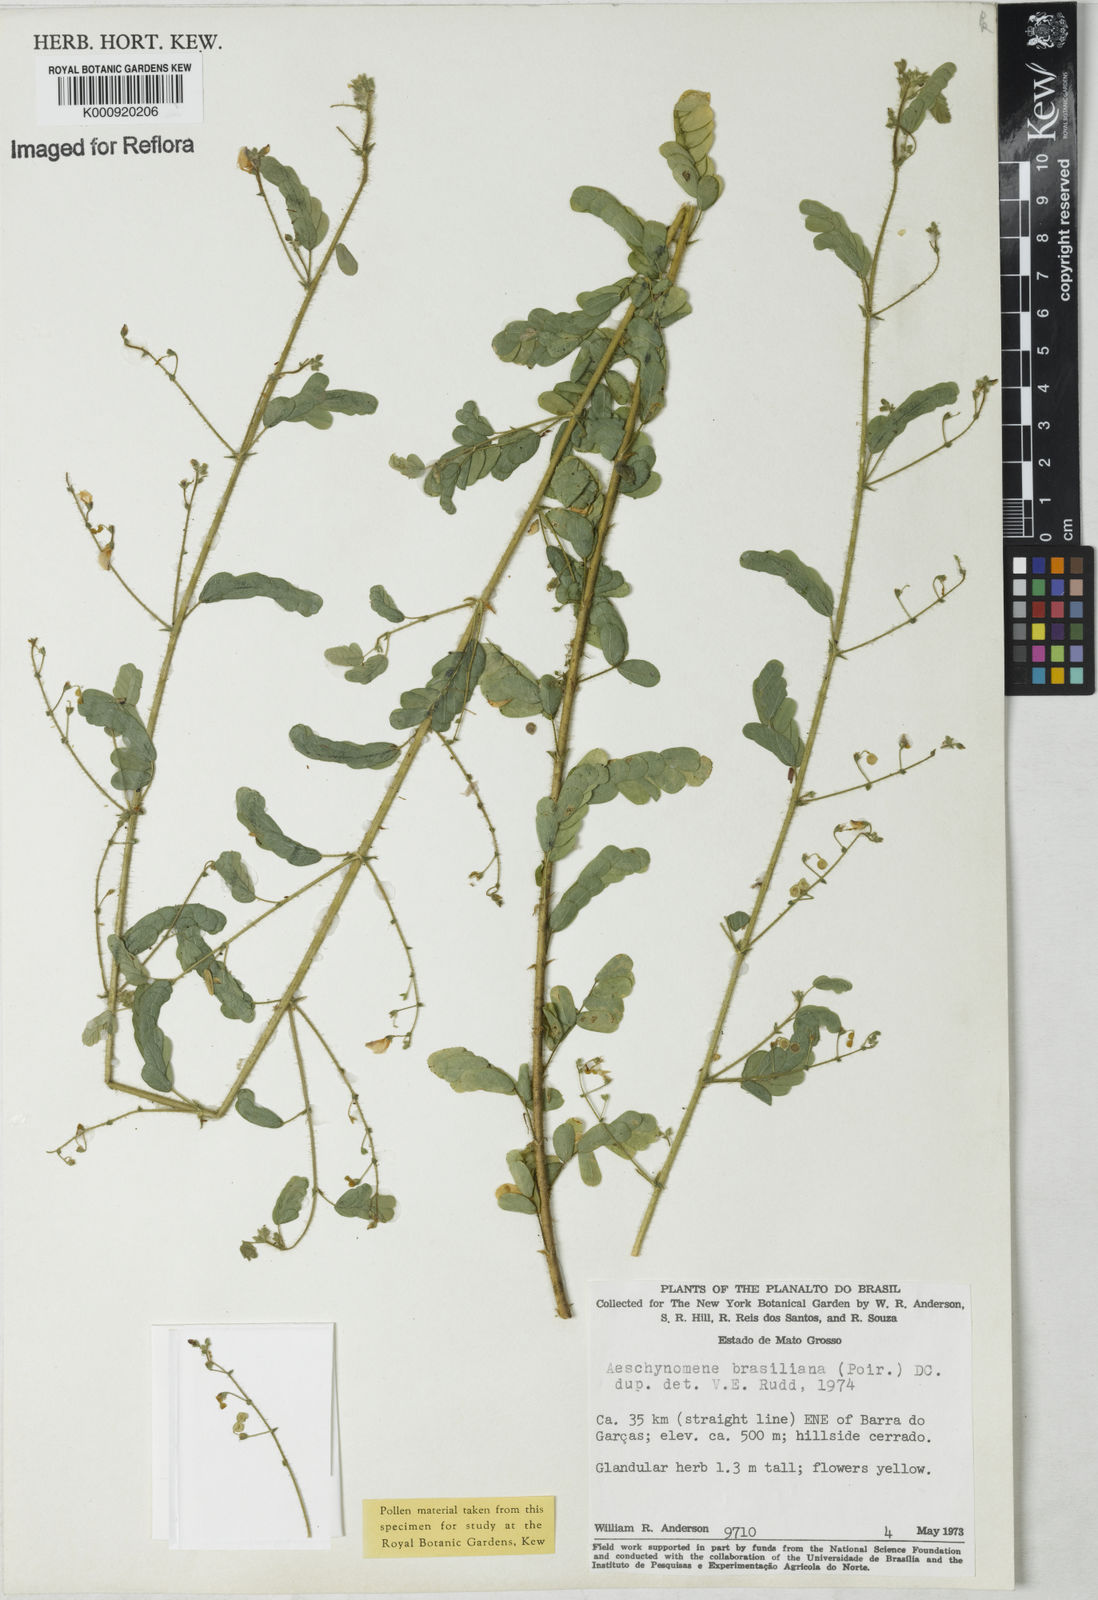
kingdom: Plantae
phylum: Tracheophyta
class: Magnoliopsida
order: Fabales
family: Fabaceae
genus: Ctenodon
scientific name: Ctenodon brasilianus
